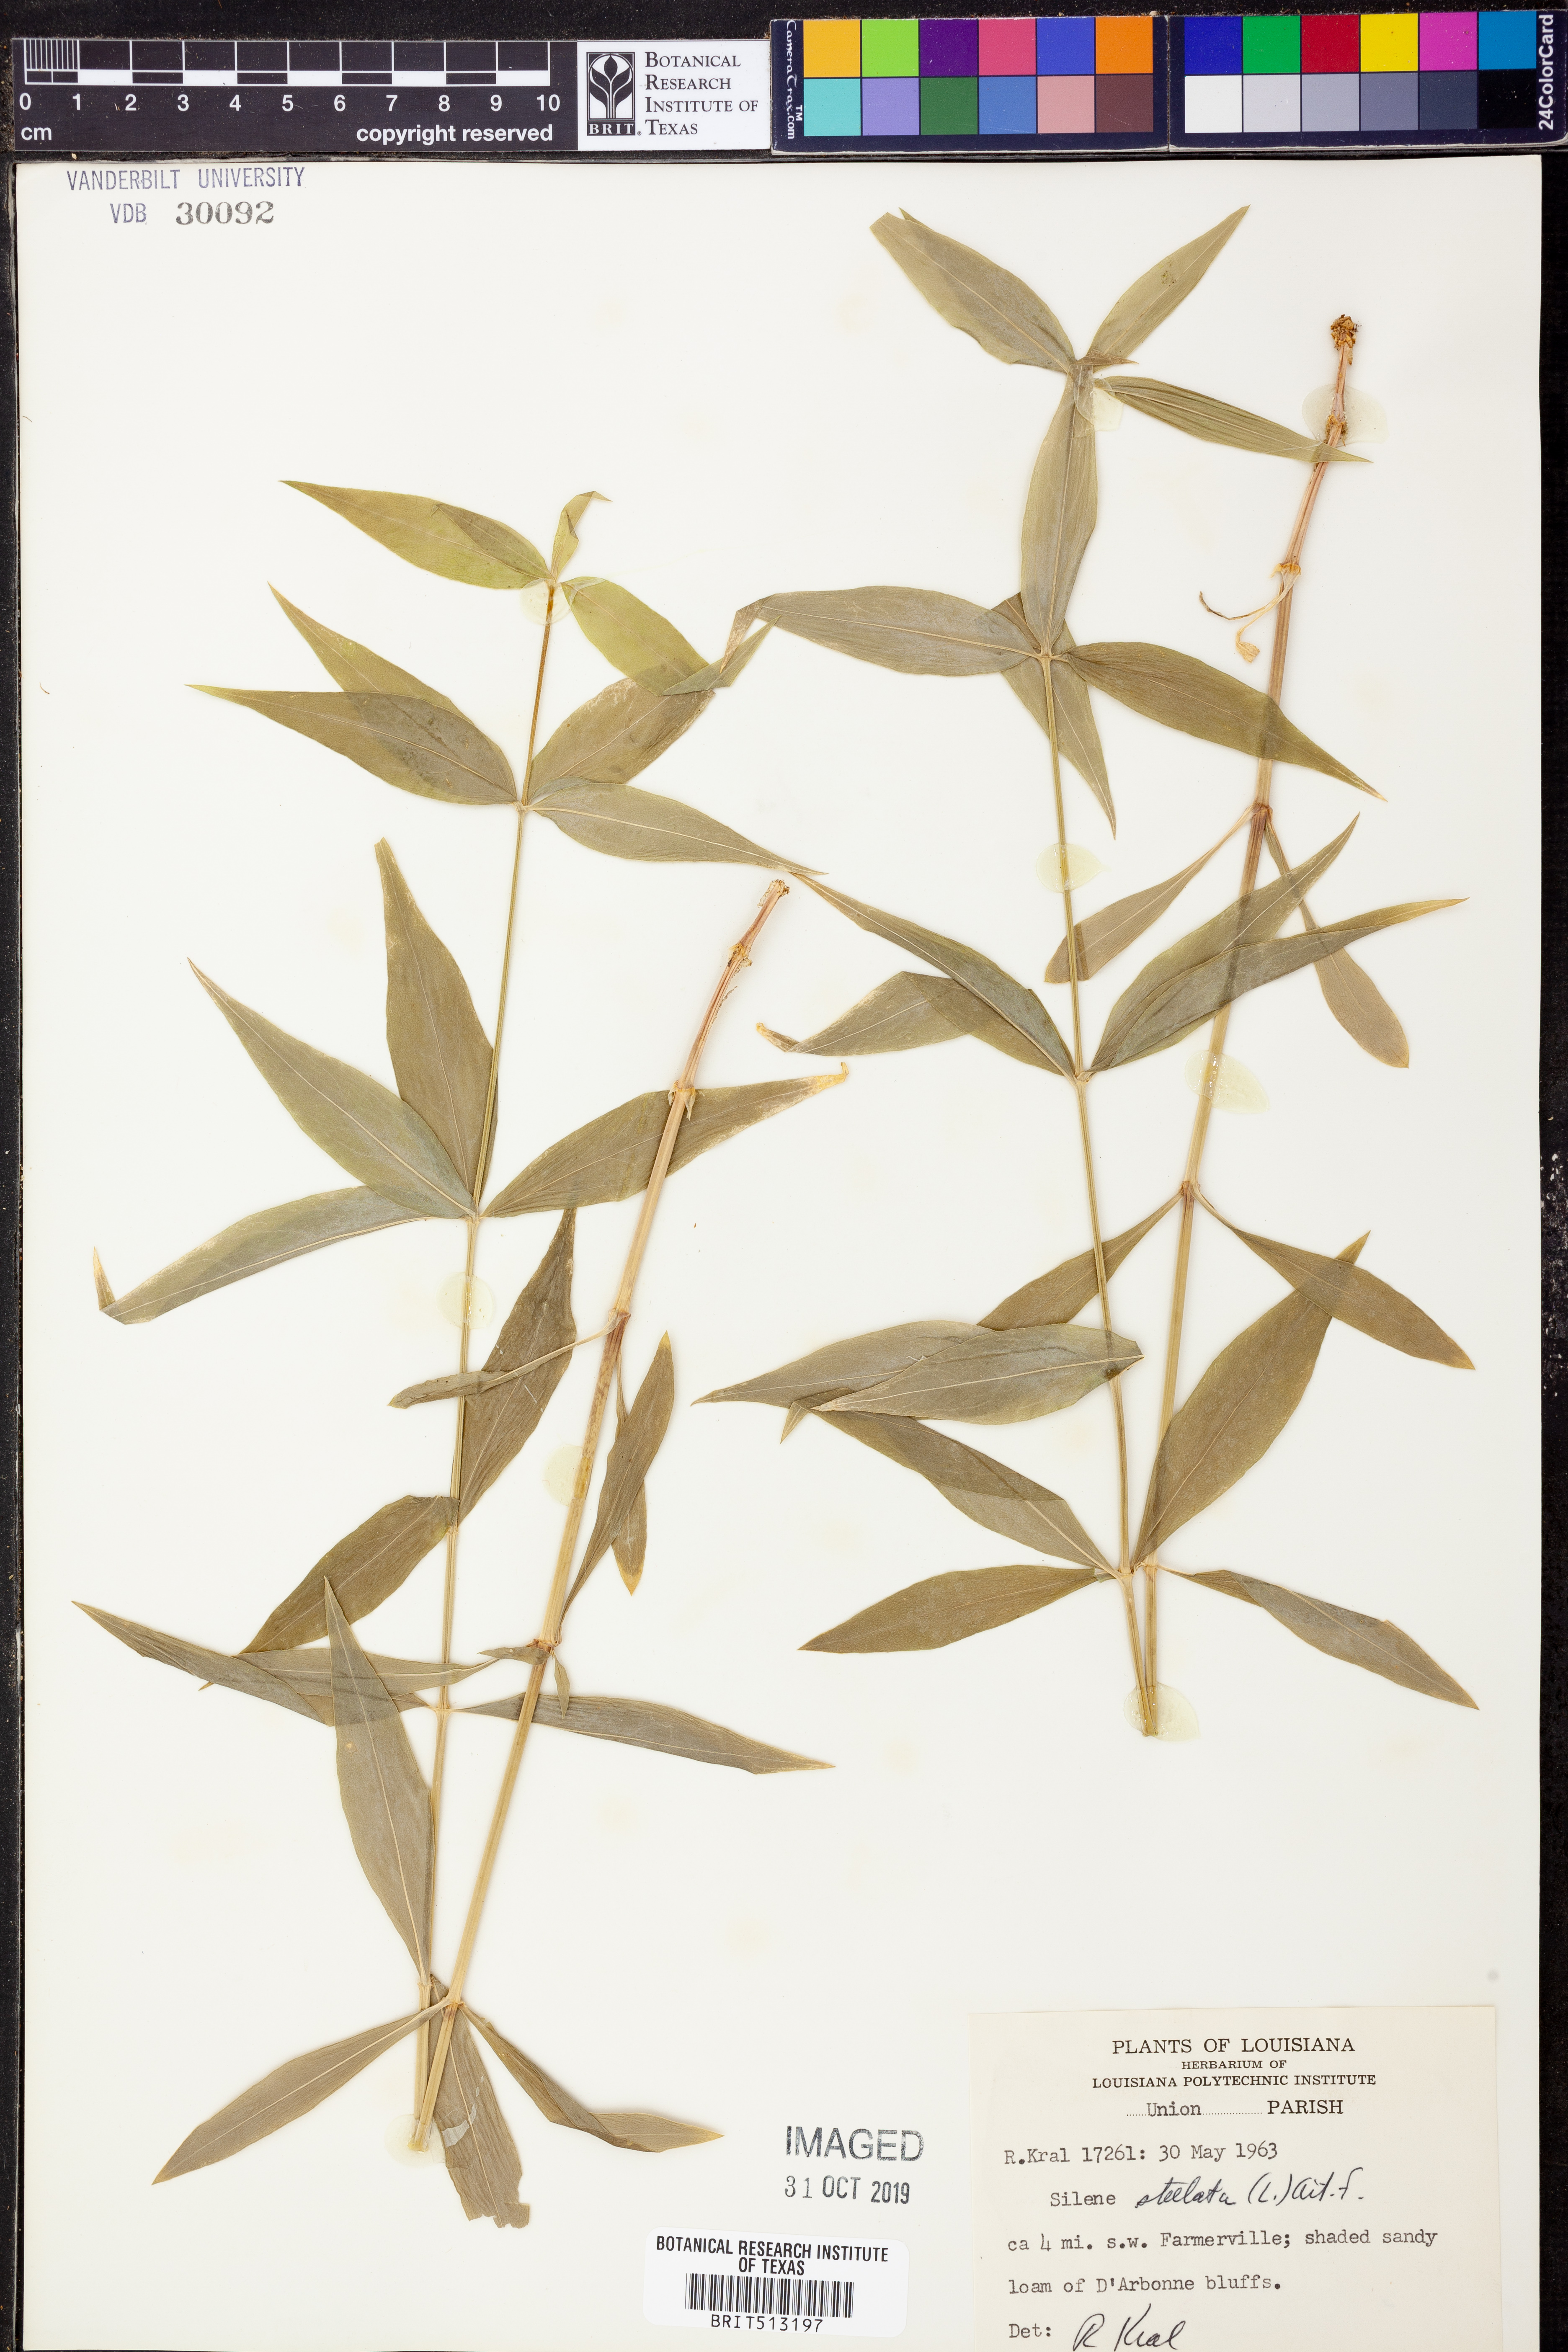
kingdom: Plantae
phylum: Tracheophyta
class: Magnoliopsida
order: Caryophyllales
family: Caryophyllaceae
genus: Silene
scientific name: Silene stellata
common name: Starry campion
